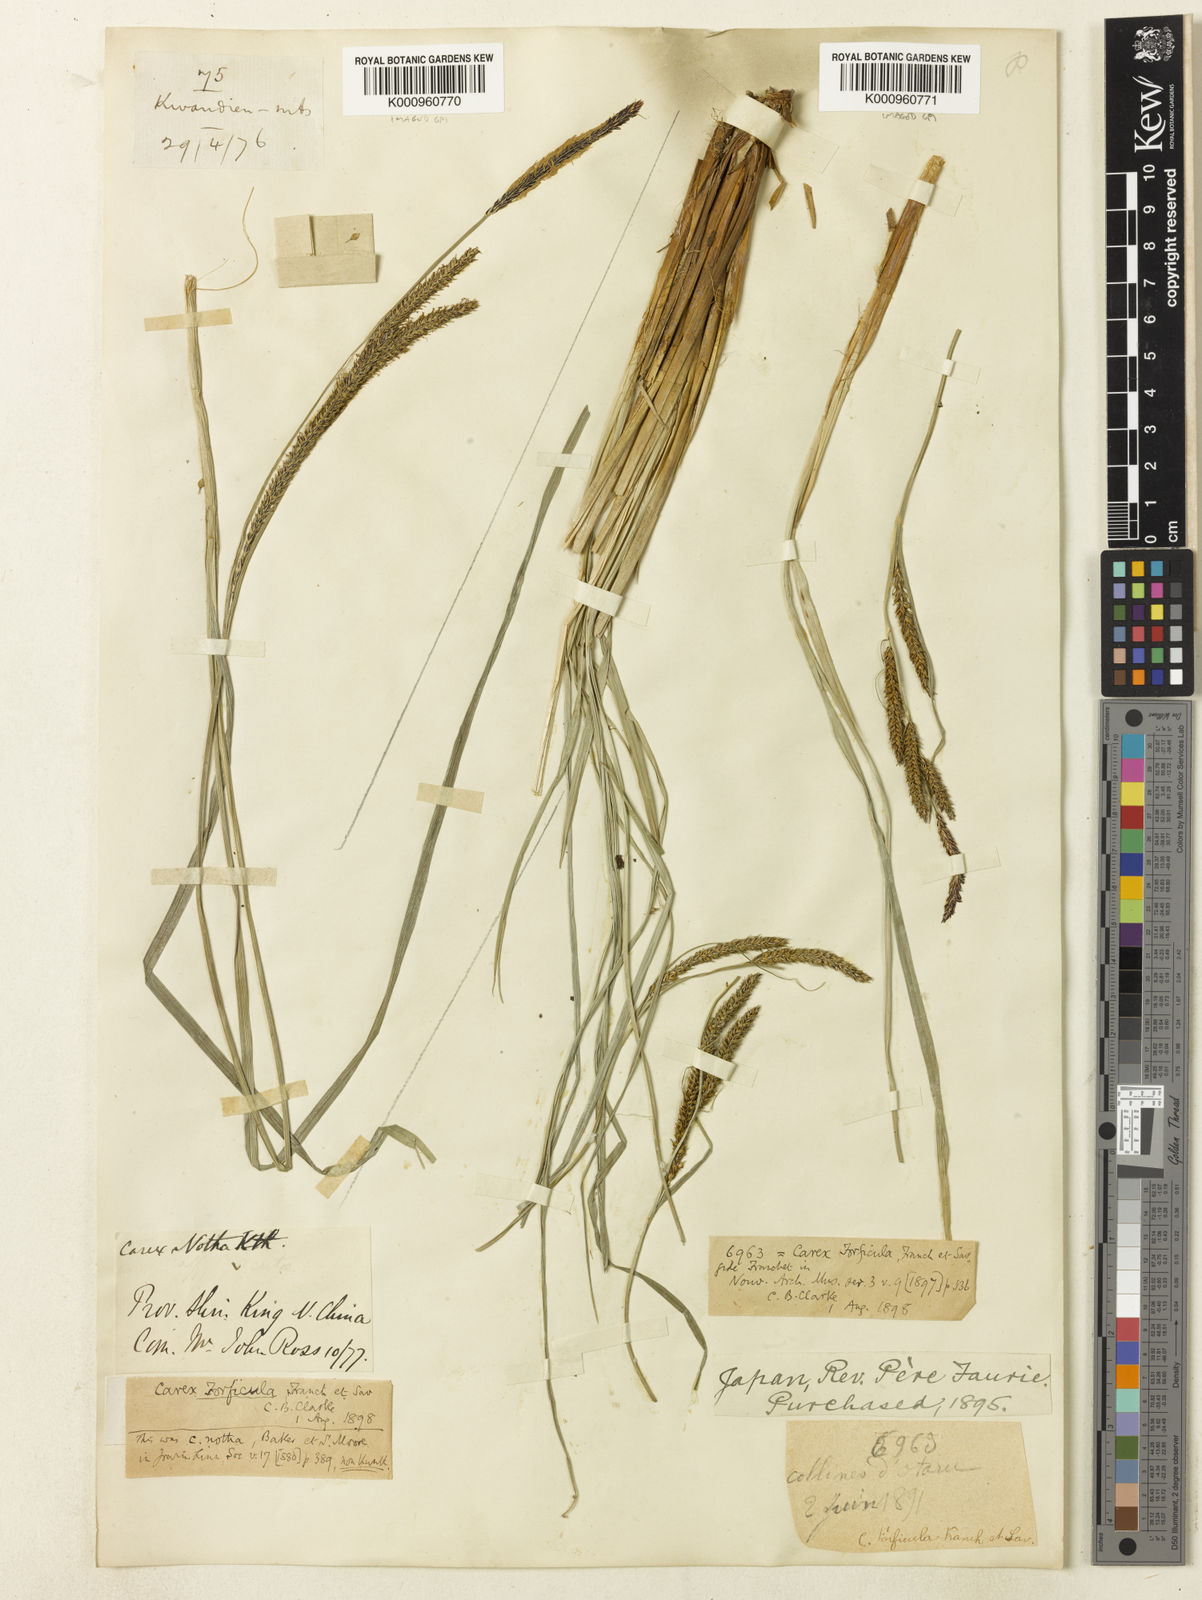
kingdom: Plantae
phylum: Tracheophyta
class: Liliopsida
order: Poales
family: Cyperaceae
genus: Carex
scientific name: Carex forficula
